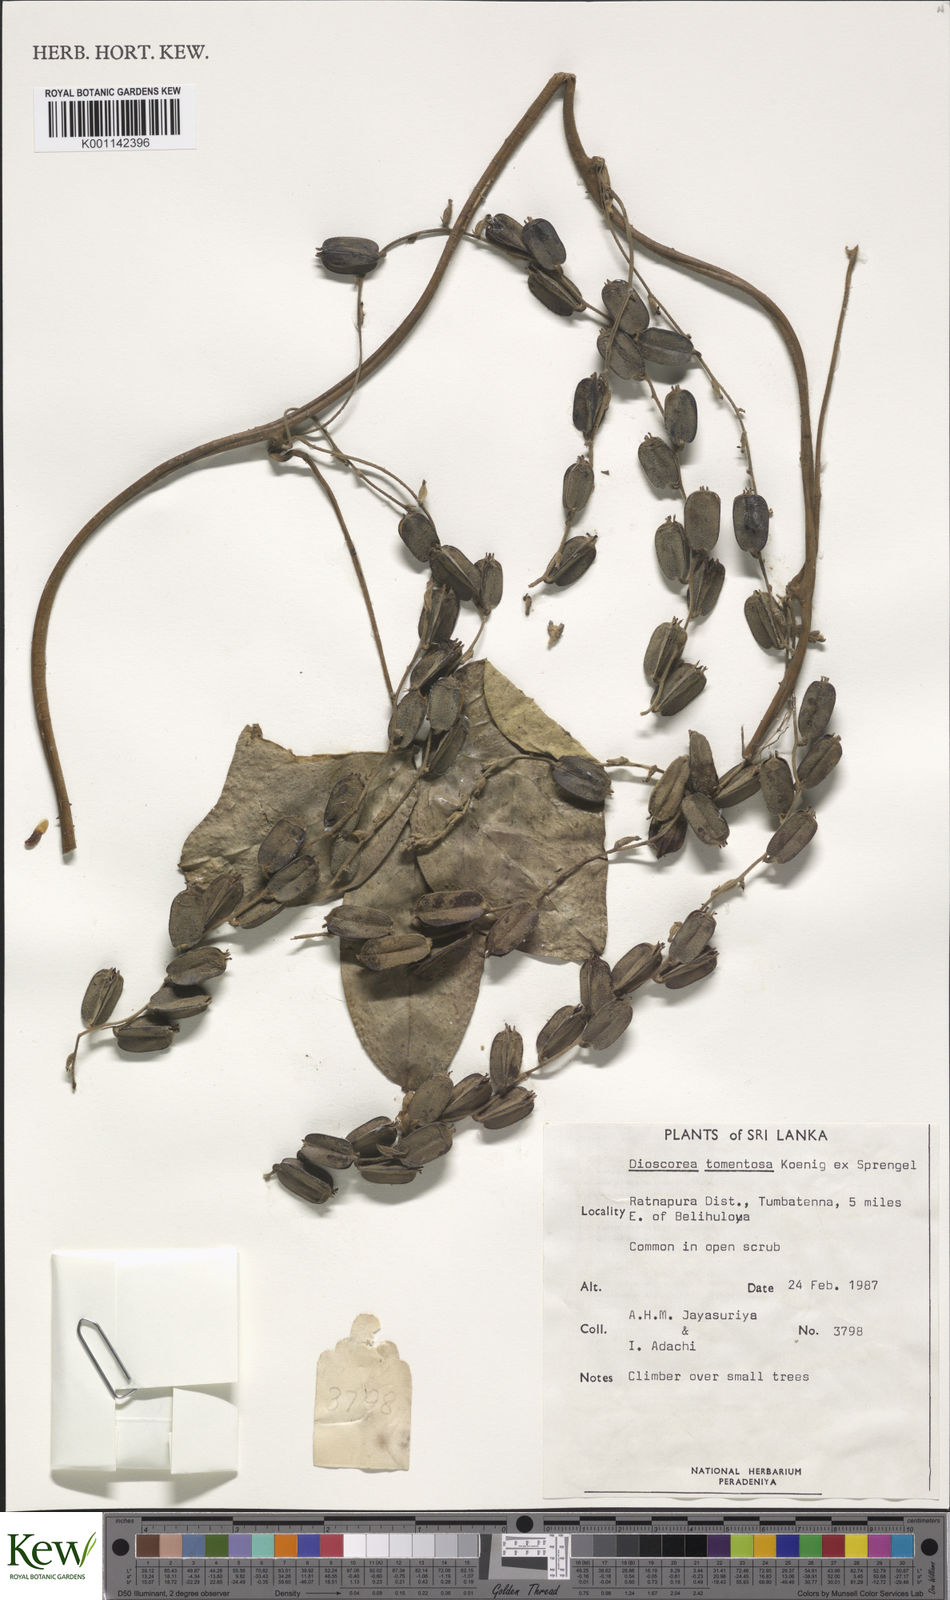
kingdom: Plantae
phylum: Tracheophyta
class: Liliopsida
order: Dioscoreales
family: Dioscoreaceae
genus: Dioscorea
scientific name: Dioscorea
